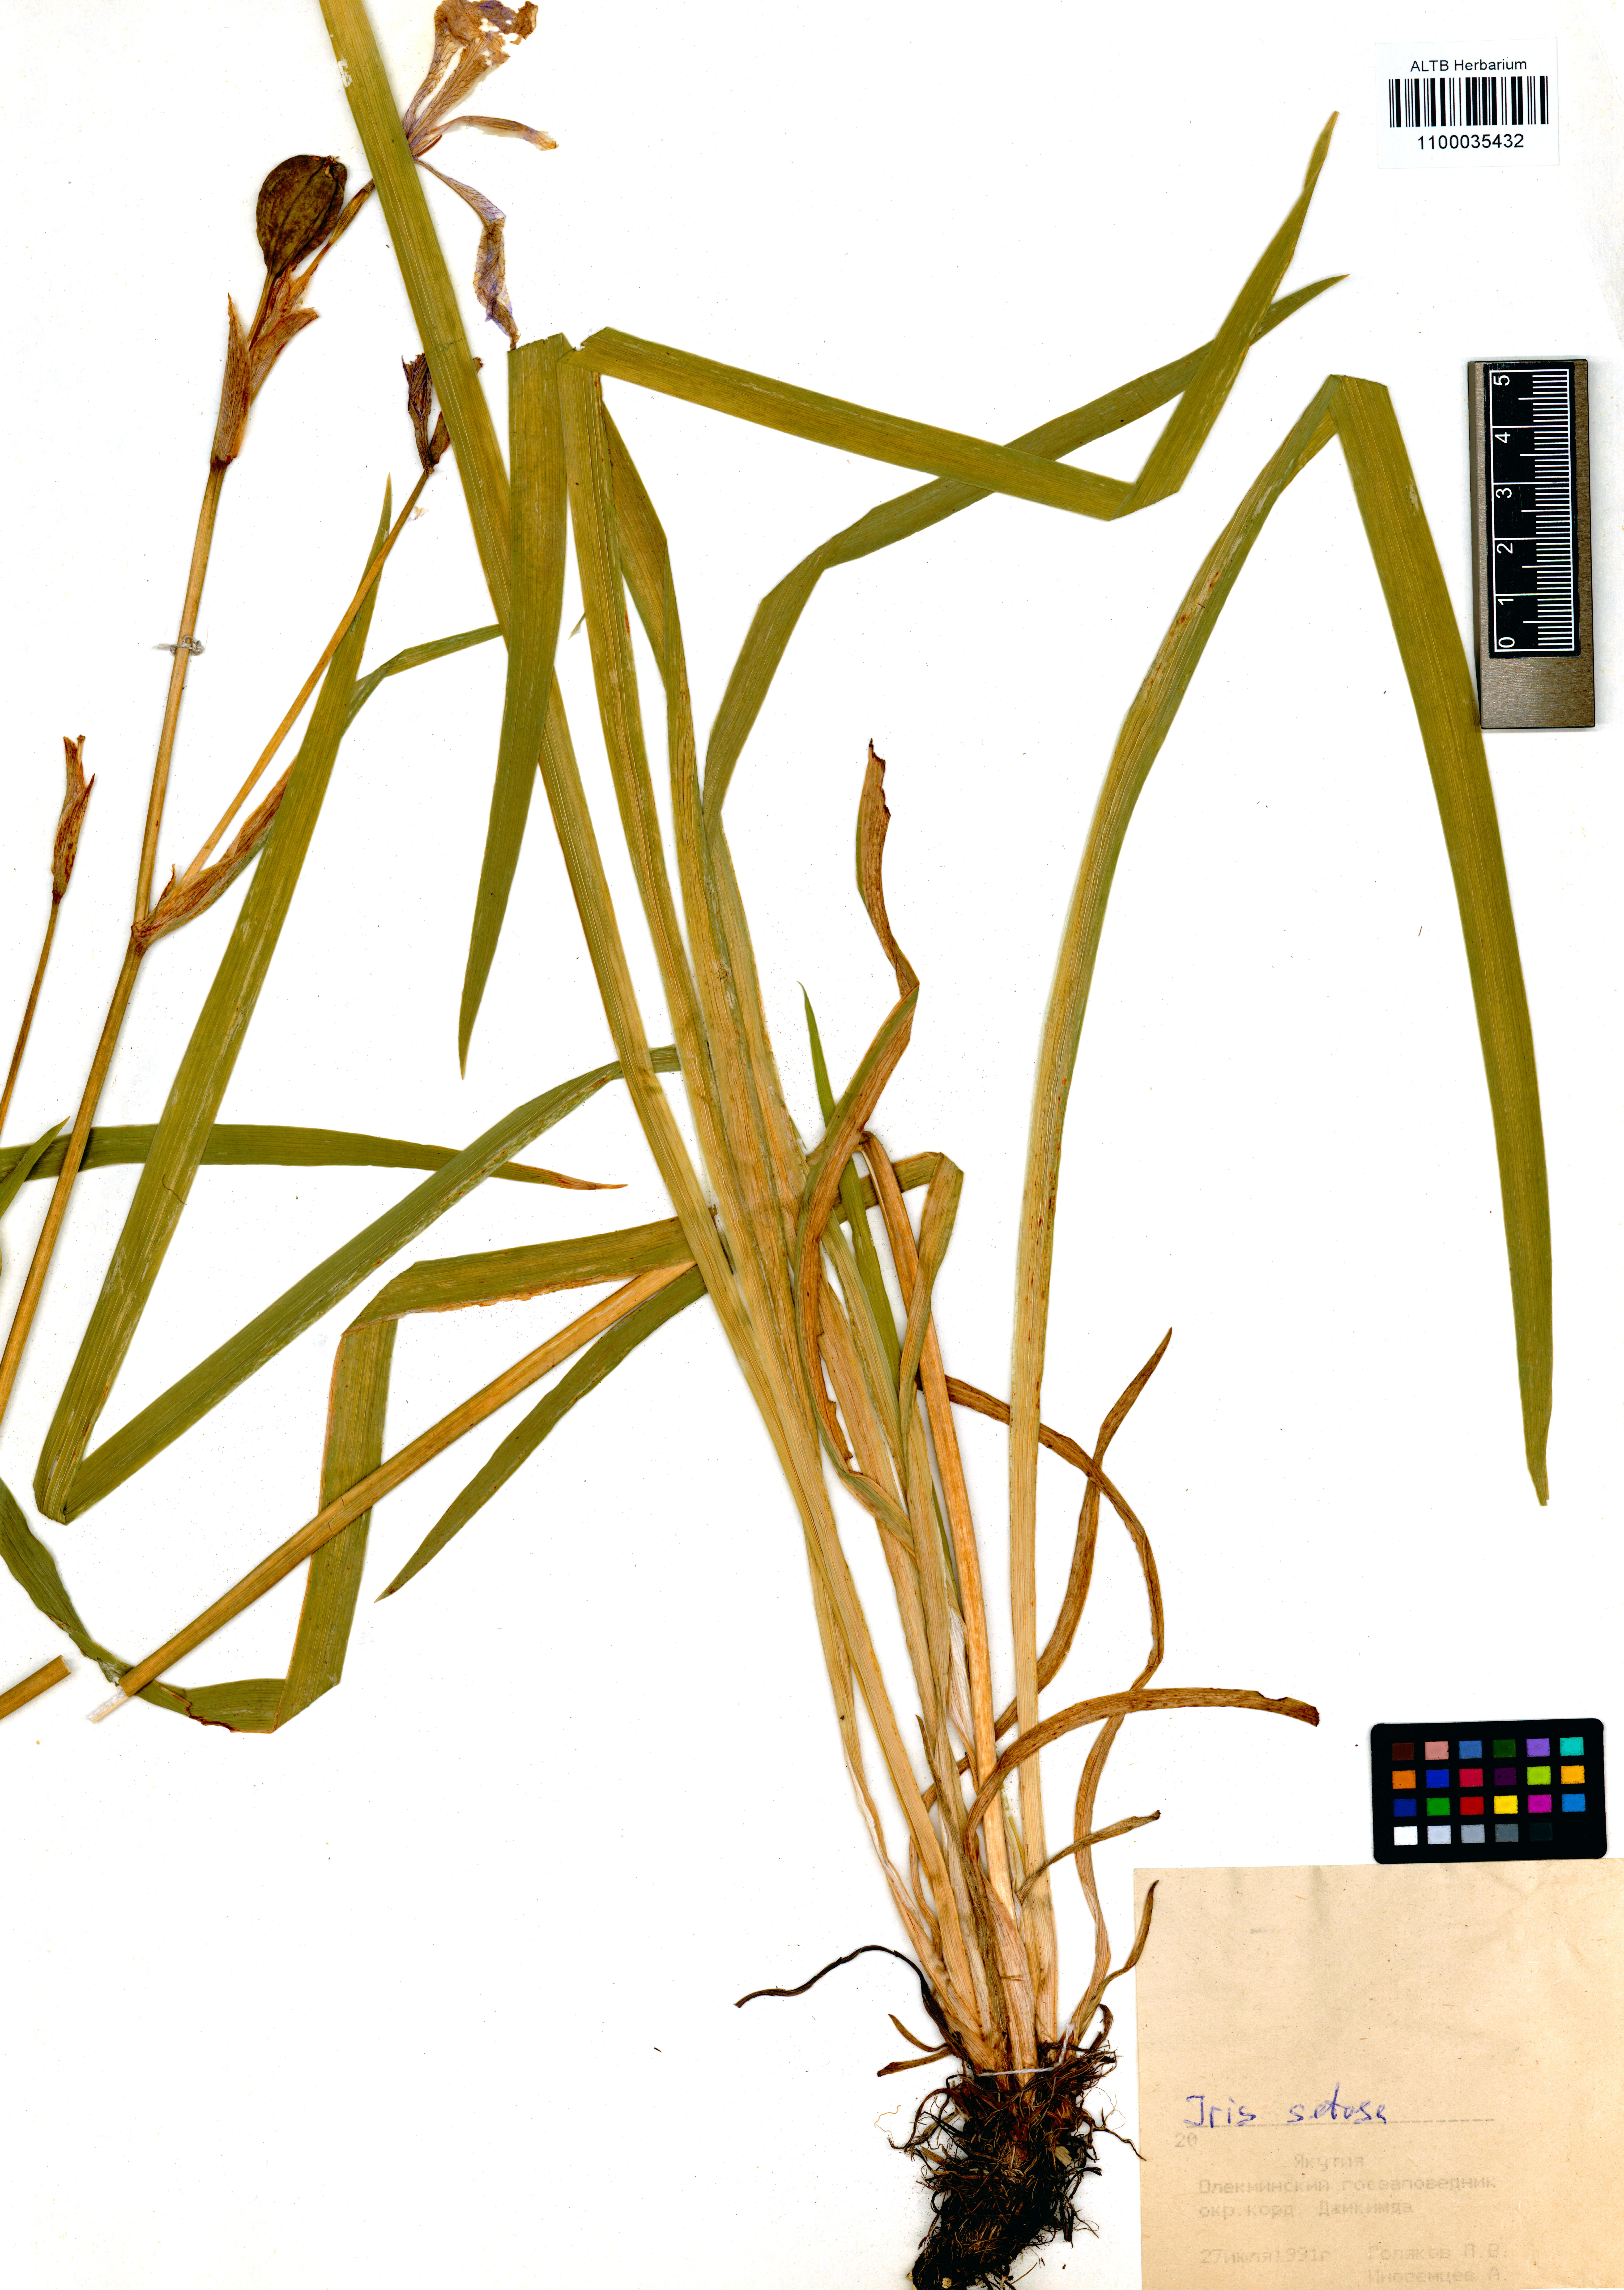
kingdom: Plantae
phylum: Tracheophyta
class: Liliopsida
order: Asparagales
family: Iridaceae
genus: Iris
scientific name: Iris setosa
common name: Arctic blue flag
